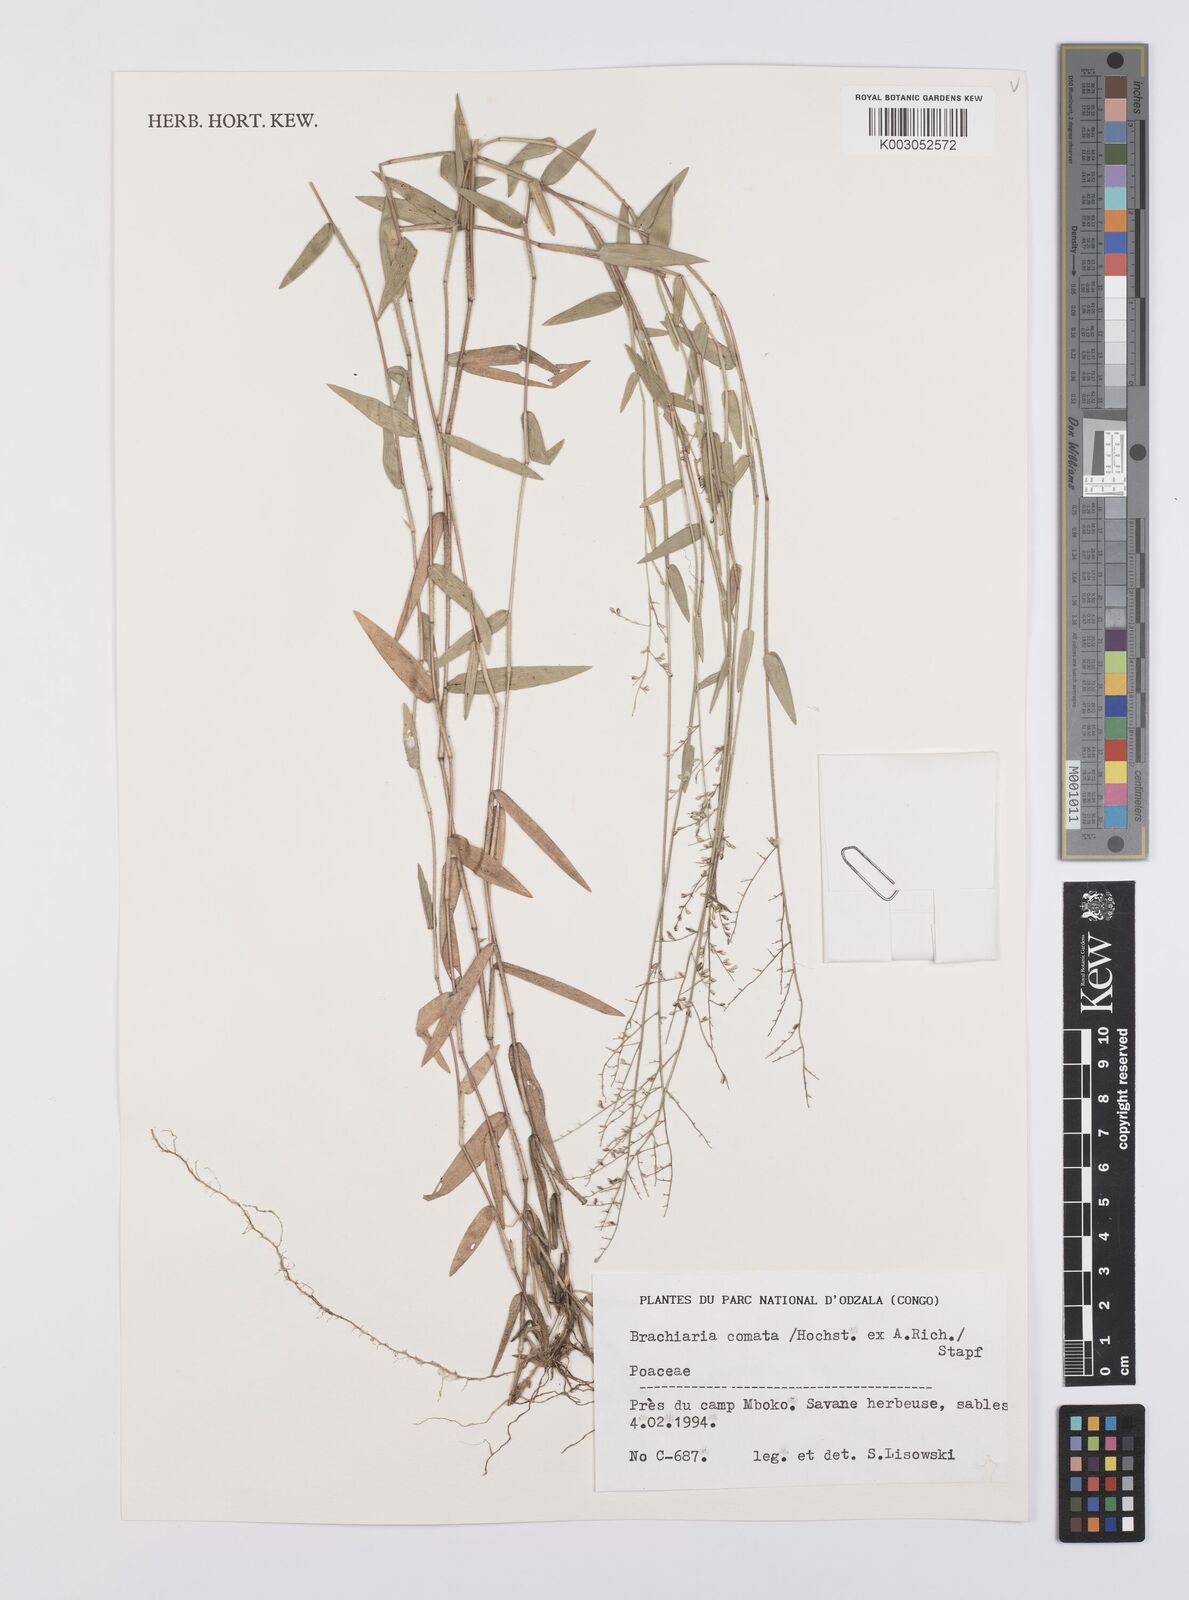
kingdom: Plantae
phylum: Tracheophyta
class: Liliopsida
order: Poales
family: Poaceae
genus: Urochloa
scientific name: Urochloa comata
